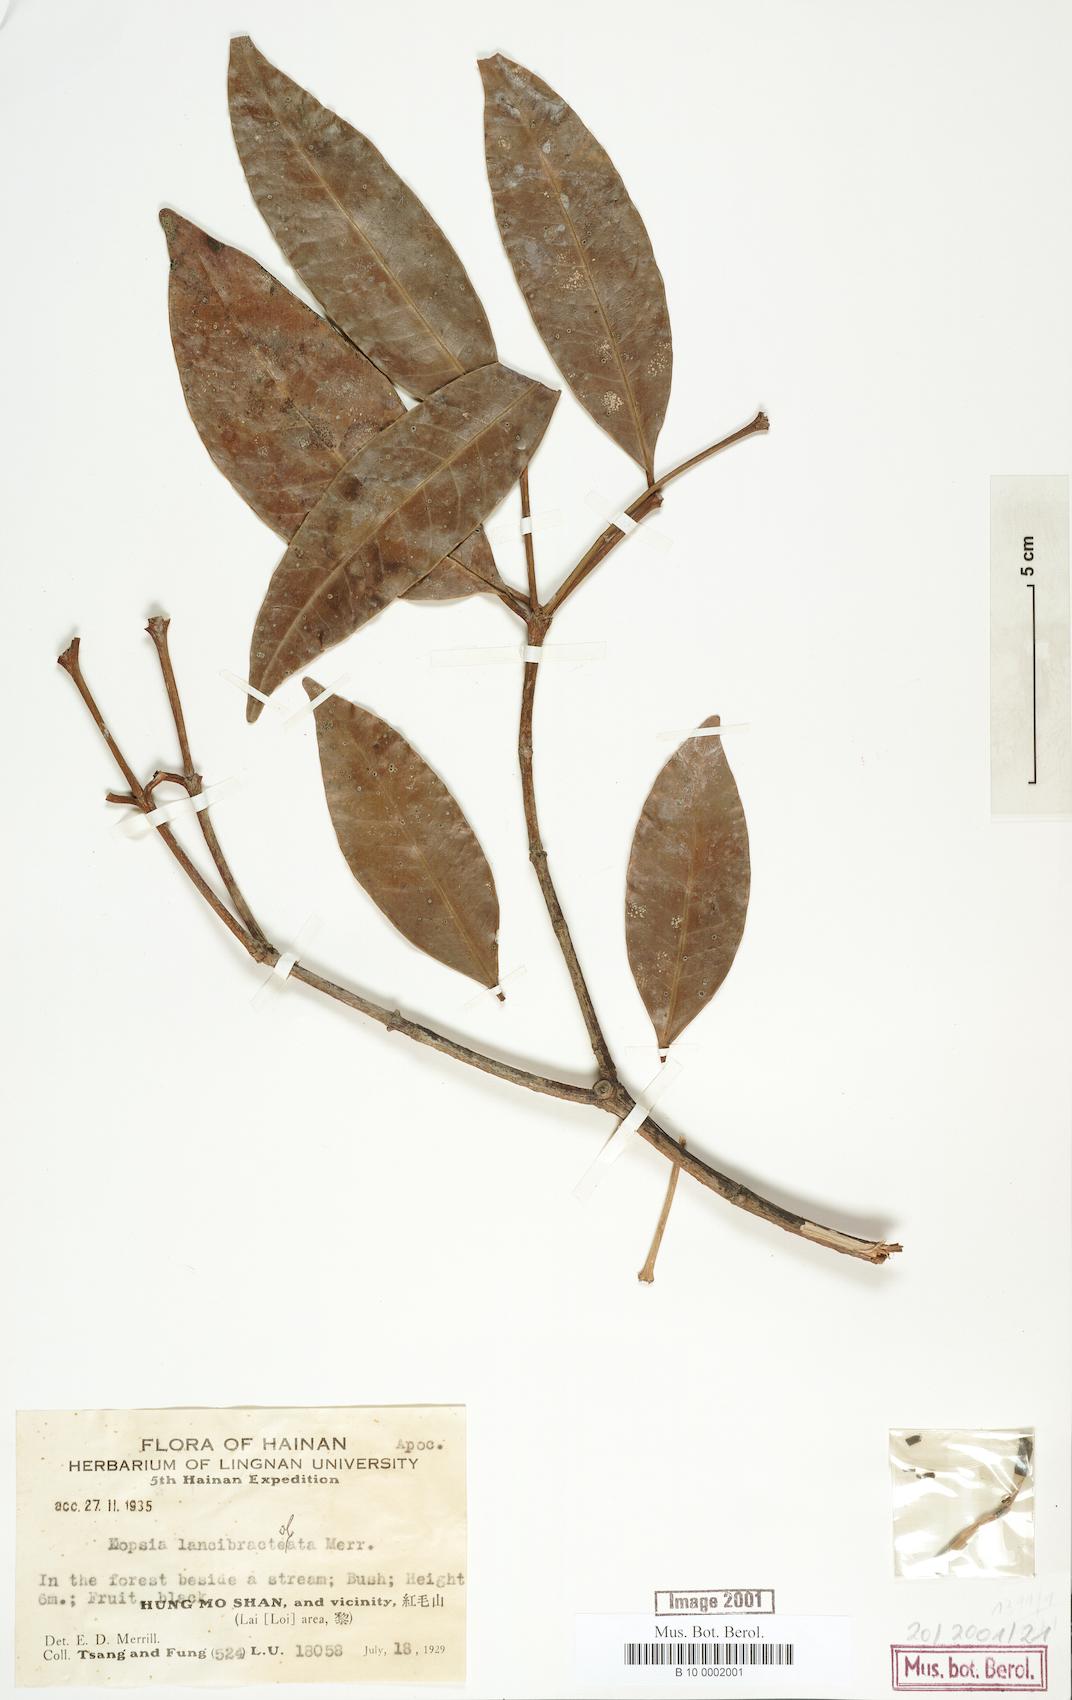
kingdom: Plantae
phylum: Tracheophyta
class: Magnoliopsida
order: Gentianales
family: Apocynaceae
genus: Kopsia
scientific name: Kopsia arborea
